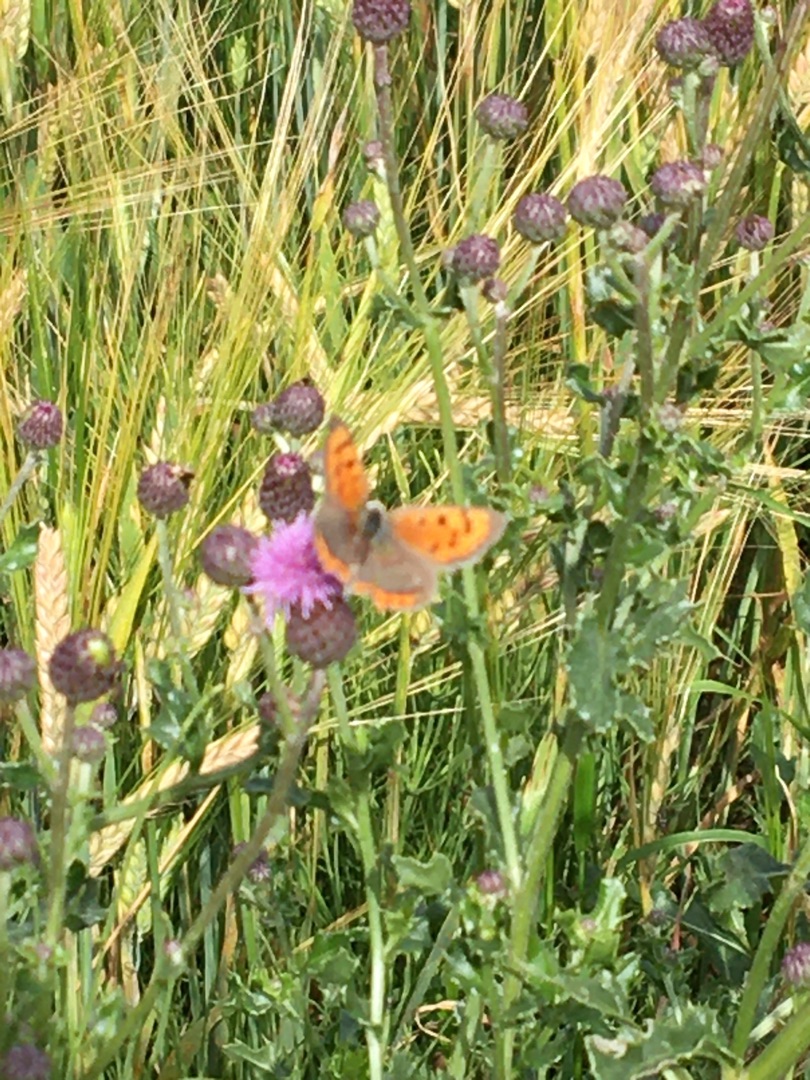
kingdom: Animalia
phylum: Arthropoda
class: Insecta
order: Lepidoptera
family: Lycaenidae
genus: Lycaena
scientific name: Lycaena phlaeas
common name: Lille ildfugl
